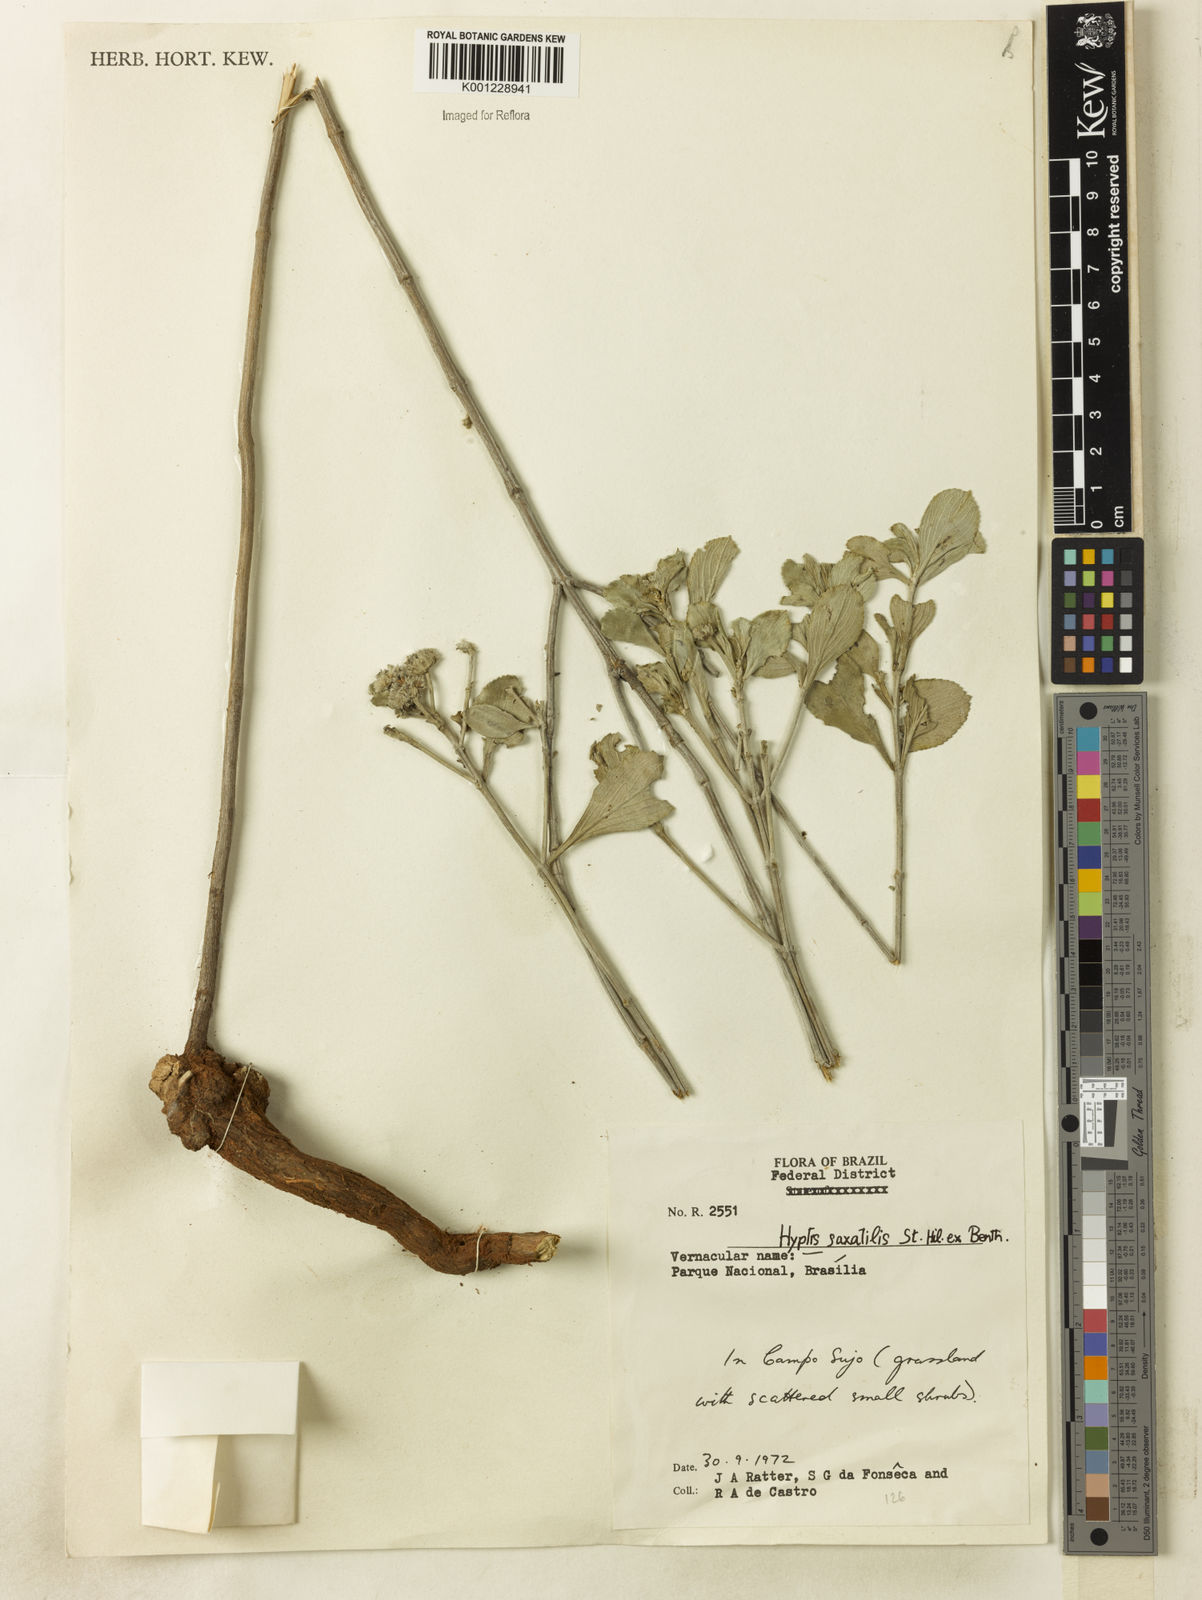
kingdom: Plantae
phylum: Tracheophyta
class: Magnoliopsida
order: Lamiales
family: Lamiaceae
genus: Hyptis
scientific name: Hyptis saxatilis
